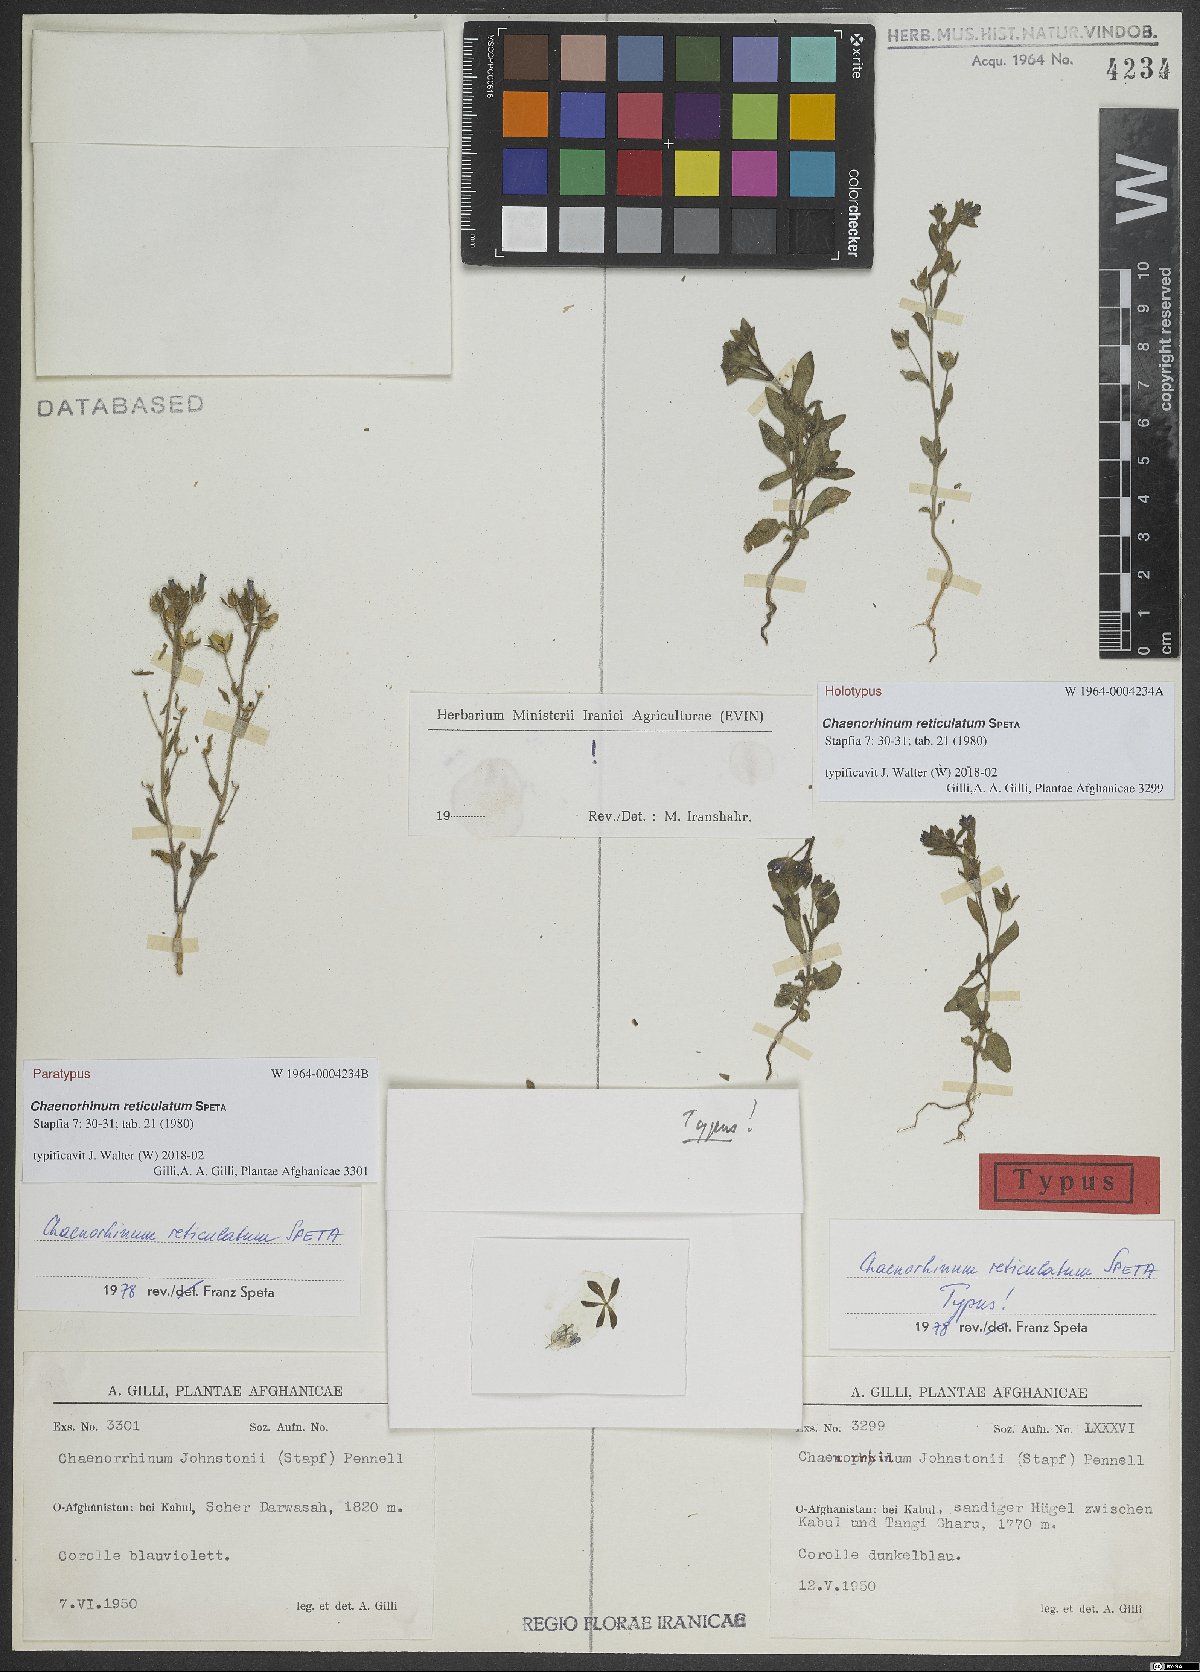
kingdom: Plantae
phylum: Tracheophyta
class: Magnoliopsida
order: Lamiales
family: Plantaginaceae
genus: Chaenorhinum
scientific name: Chaenorhinum reticulatum
